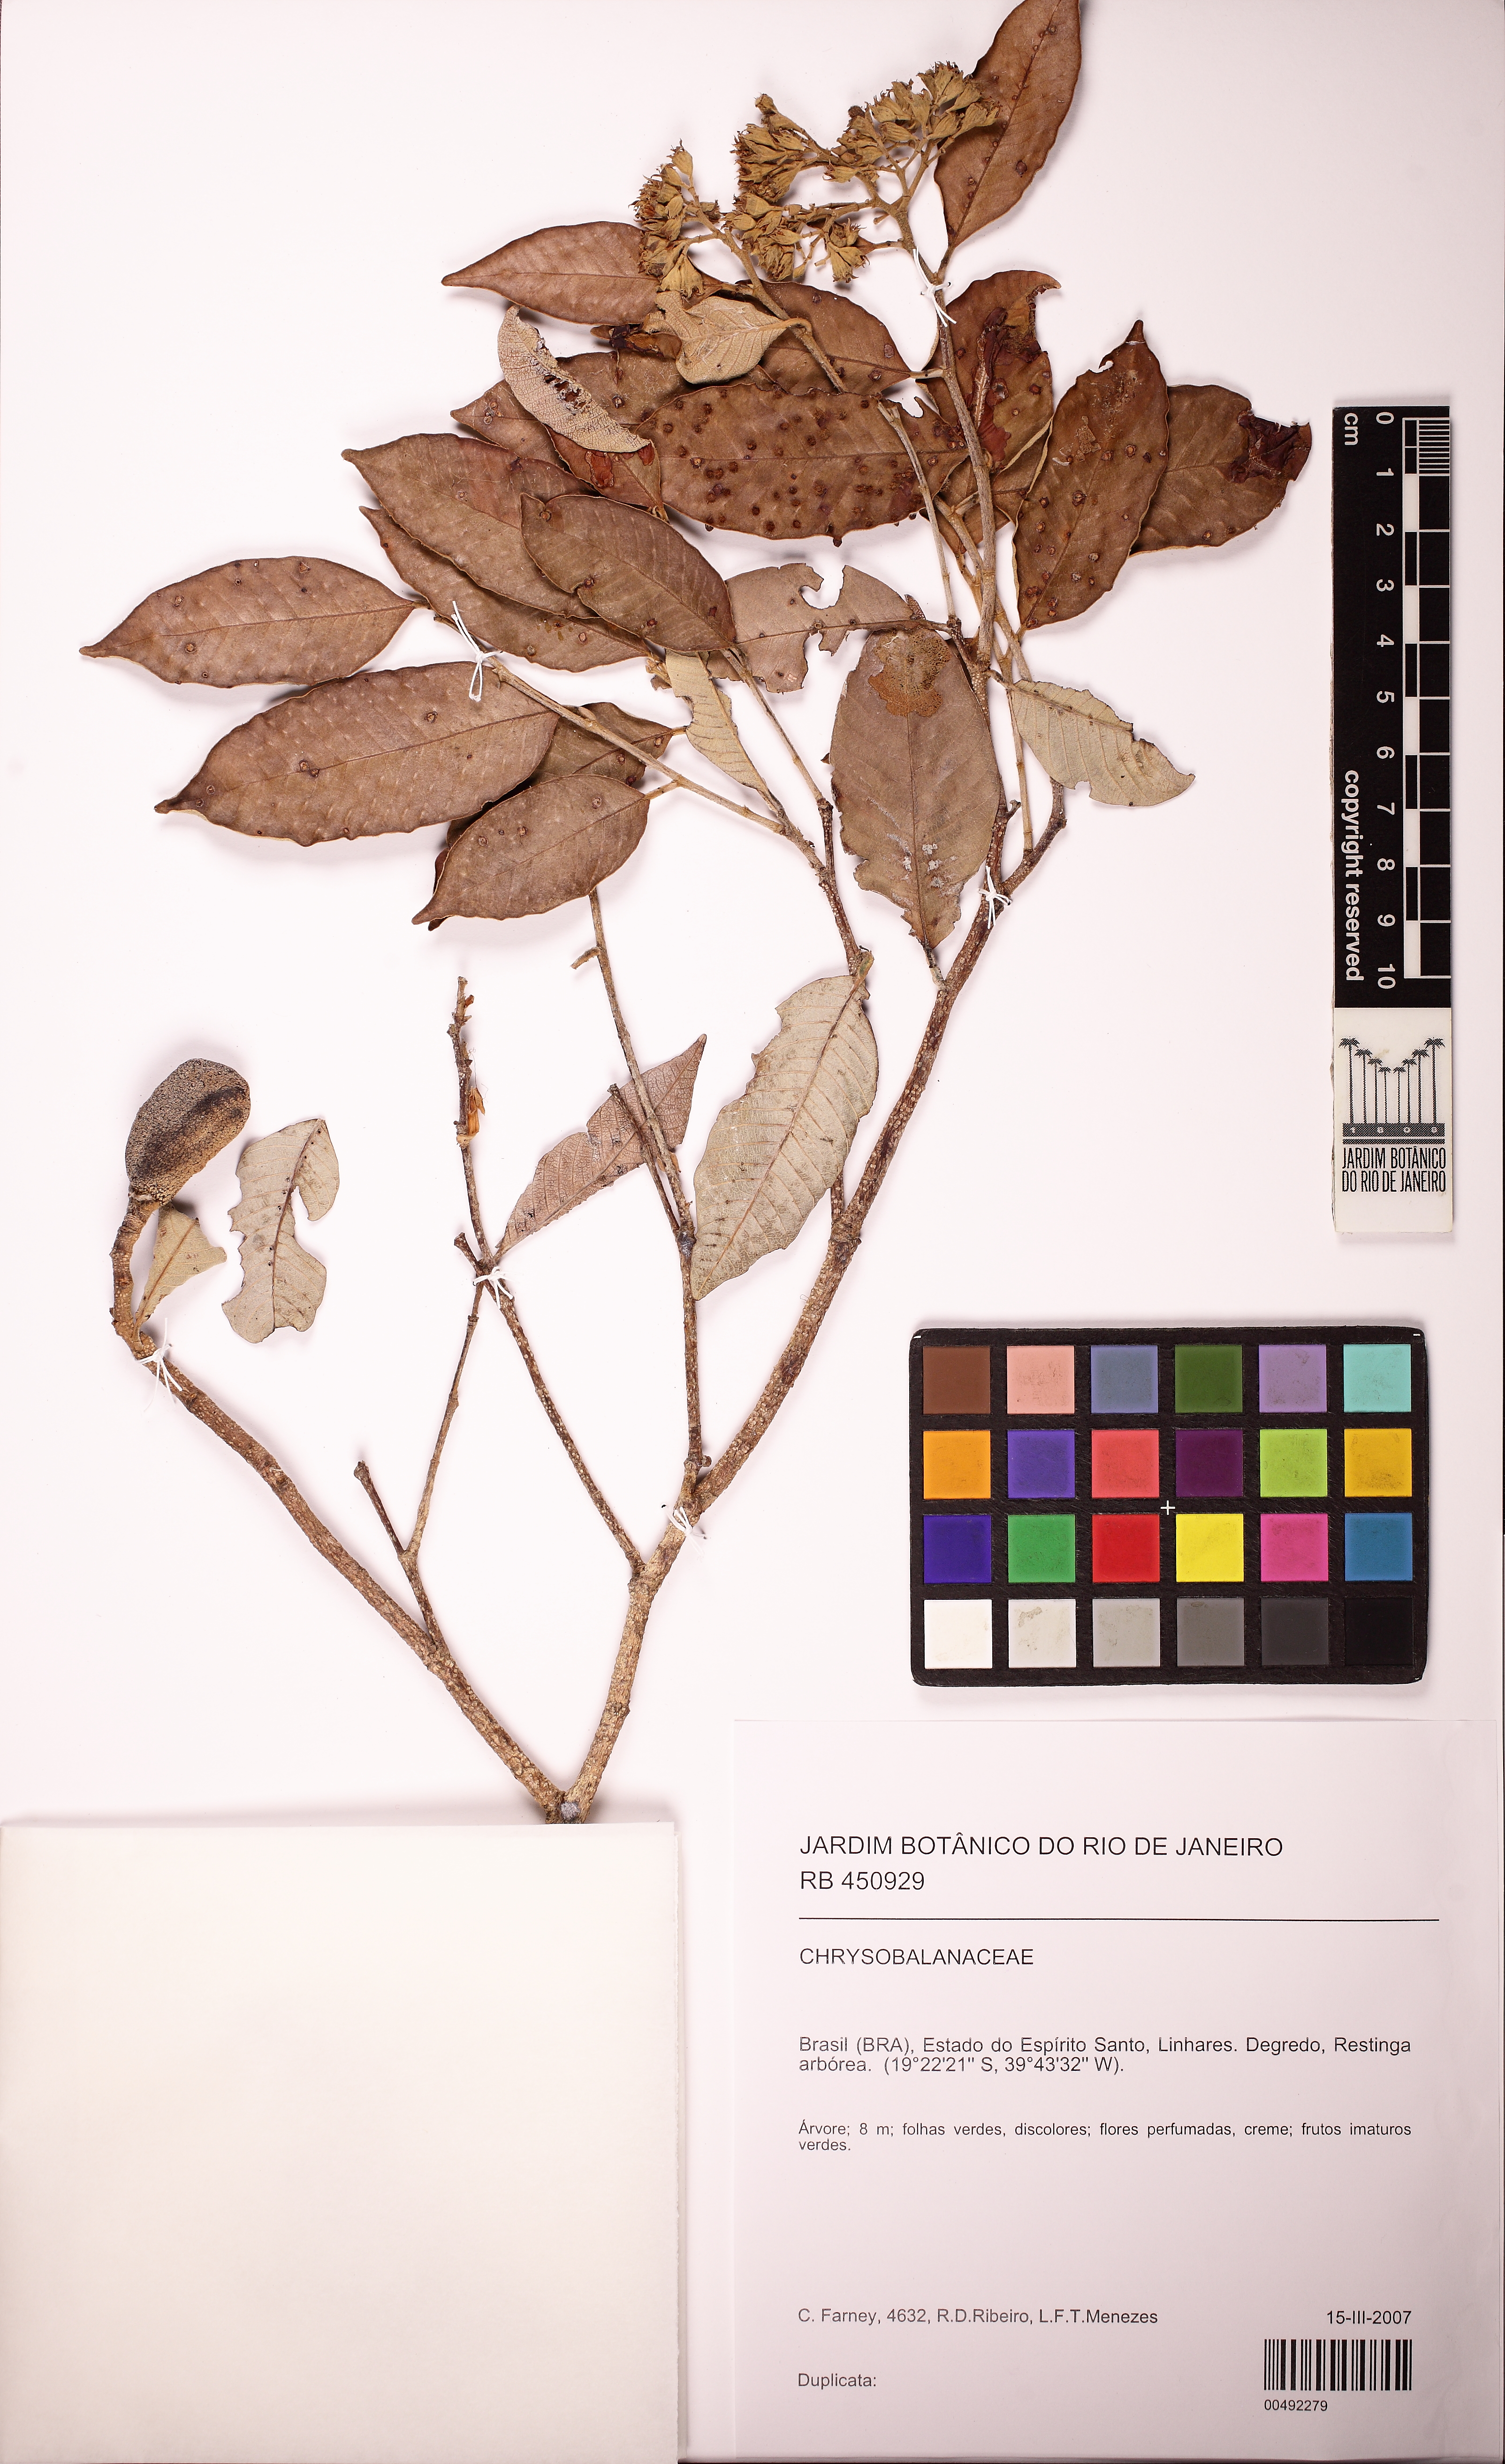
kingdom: Plantae
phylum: Tracheophyta
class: Magnoliopsida
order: Malpighiales
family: Chrysobalanaceae
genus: Parinari
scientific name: Parinari excelsa
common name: Guinea-plum
